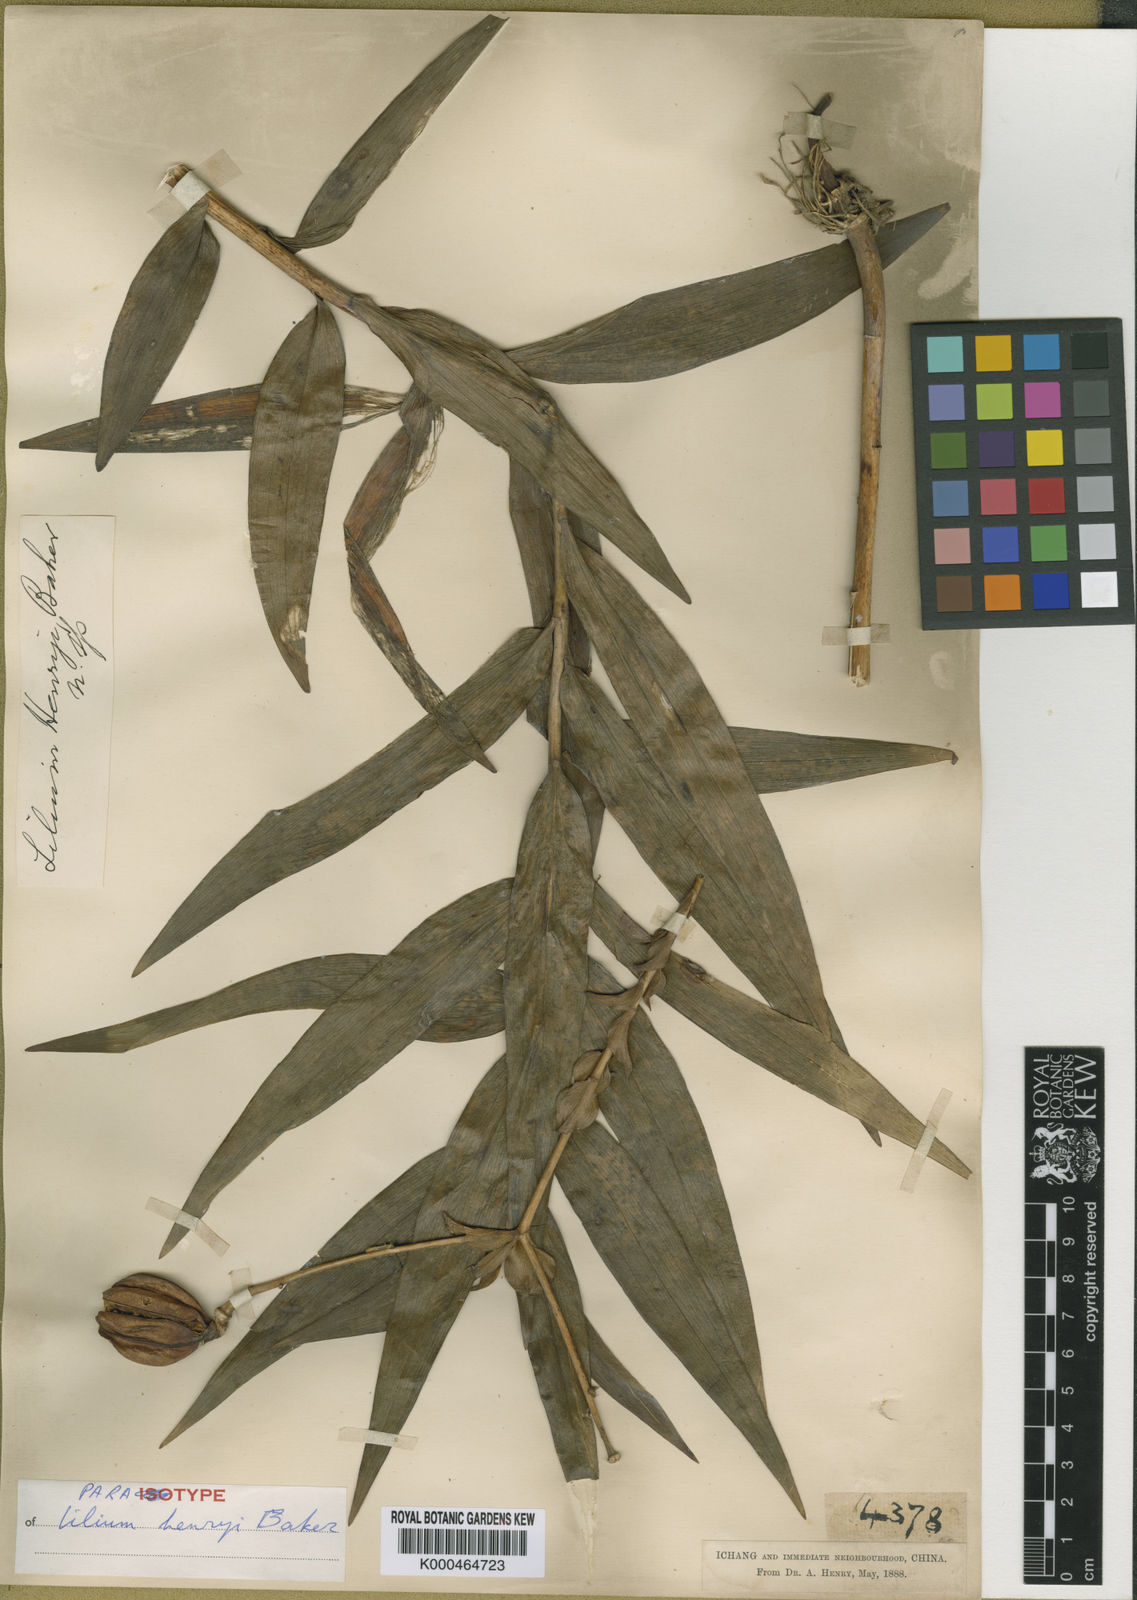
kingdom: Plantae
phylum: Tracheophyta
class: Liliopsida
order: Liliales
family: Liliaceae
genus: Lilium
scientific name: Lilium henryi
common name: Henry's lily
